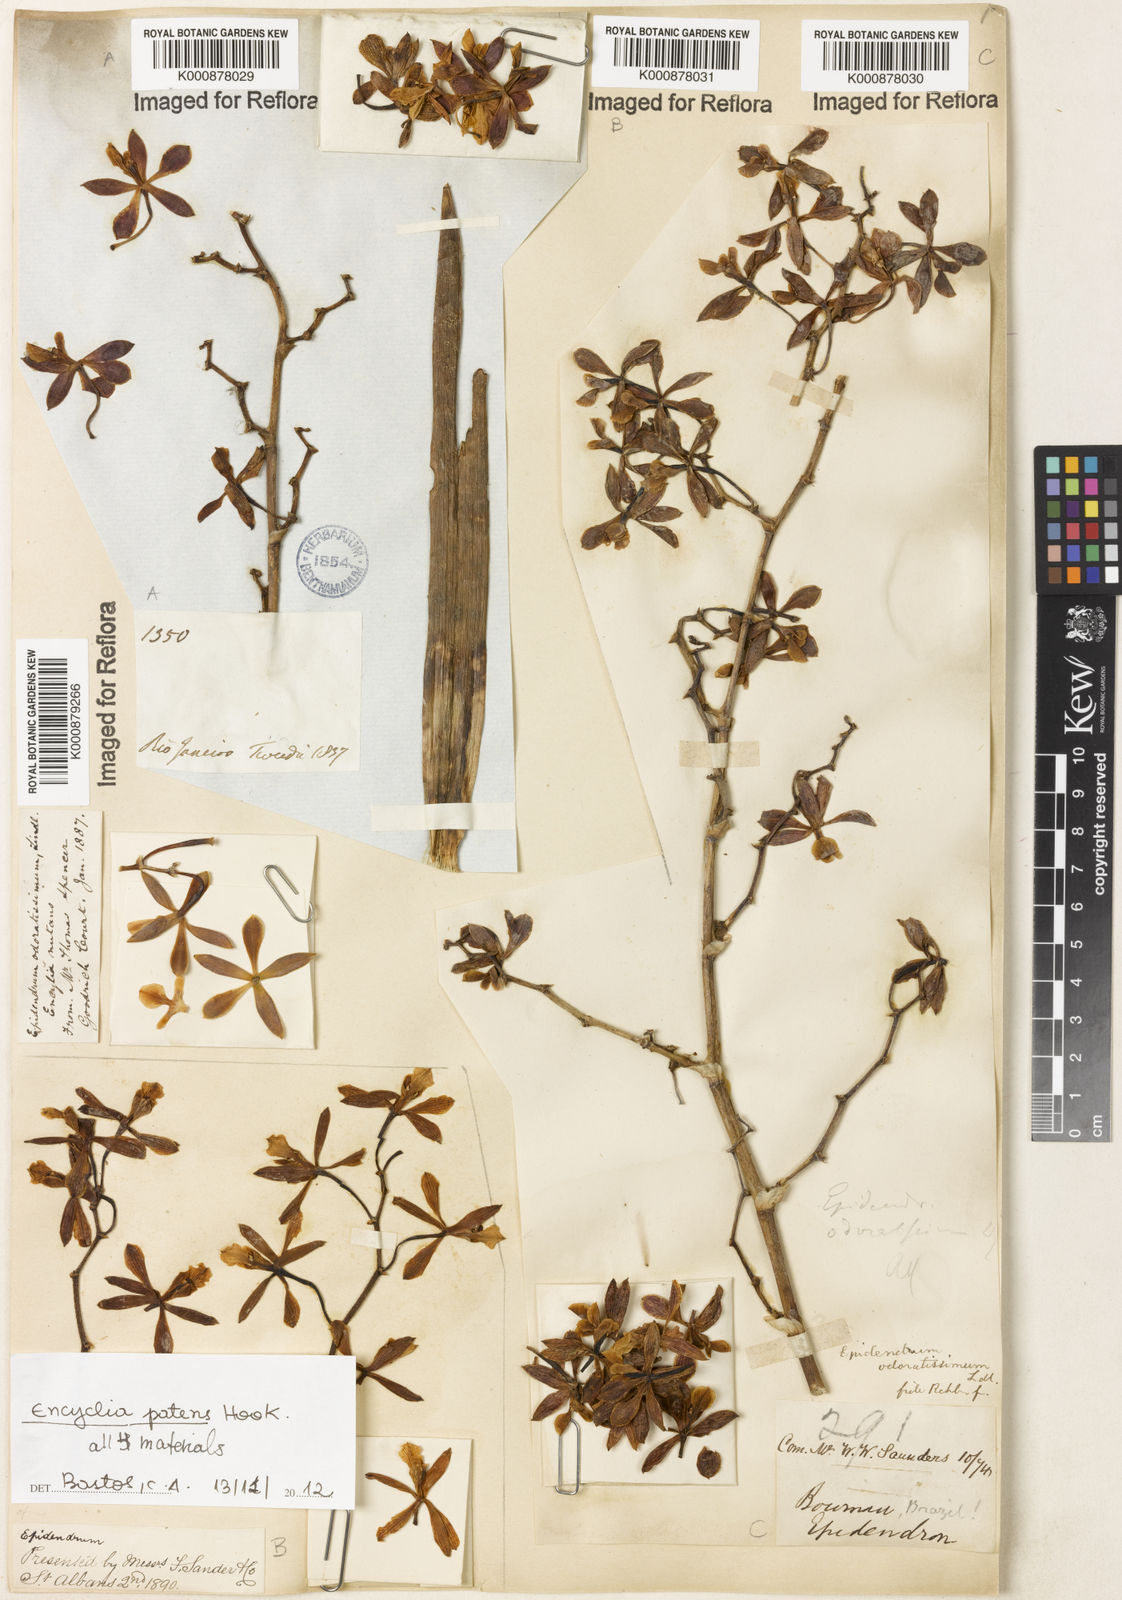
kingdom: Plantae
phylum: Tracheophyta
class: Liliopsida
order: Asparagales
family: Orchidaceae
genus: Encyclia
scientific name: Encyclia patens
